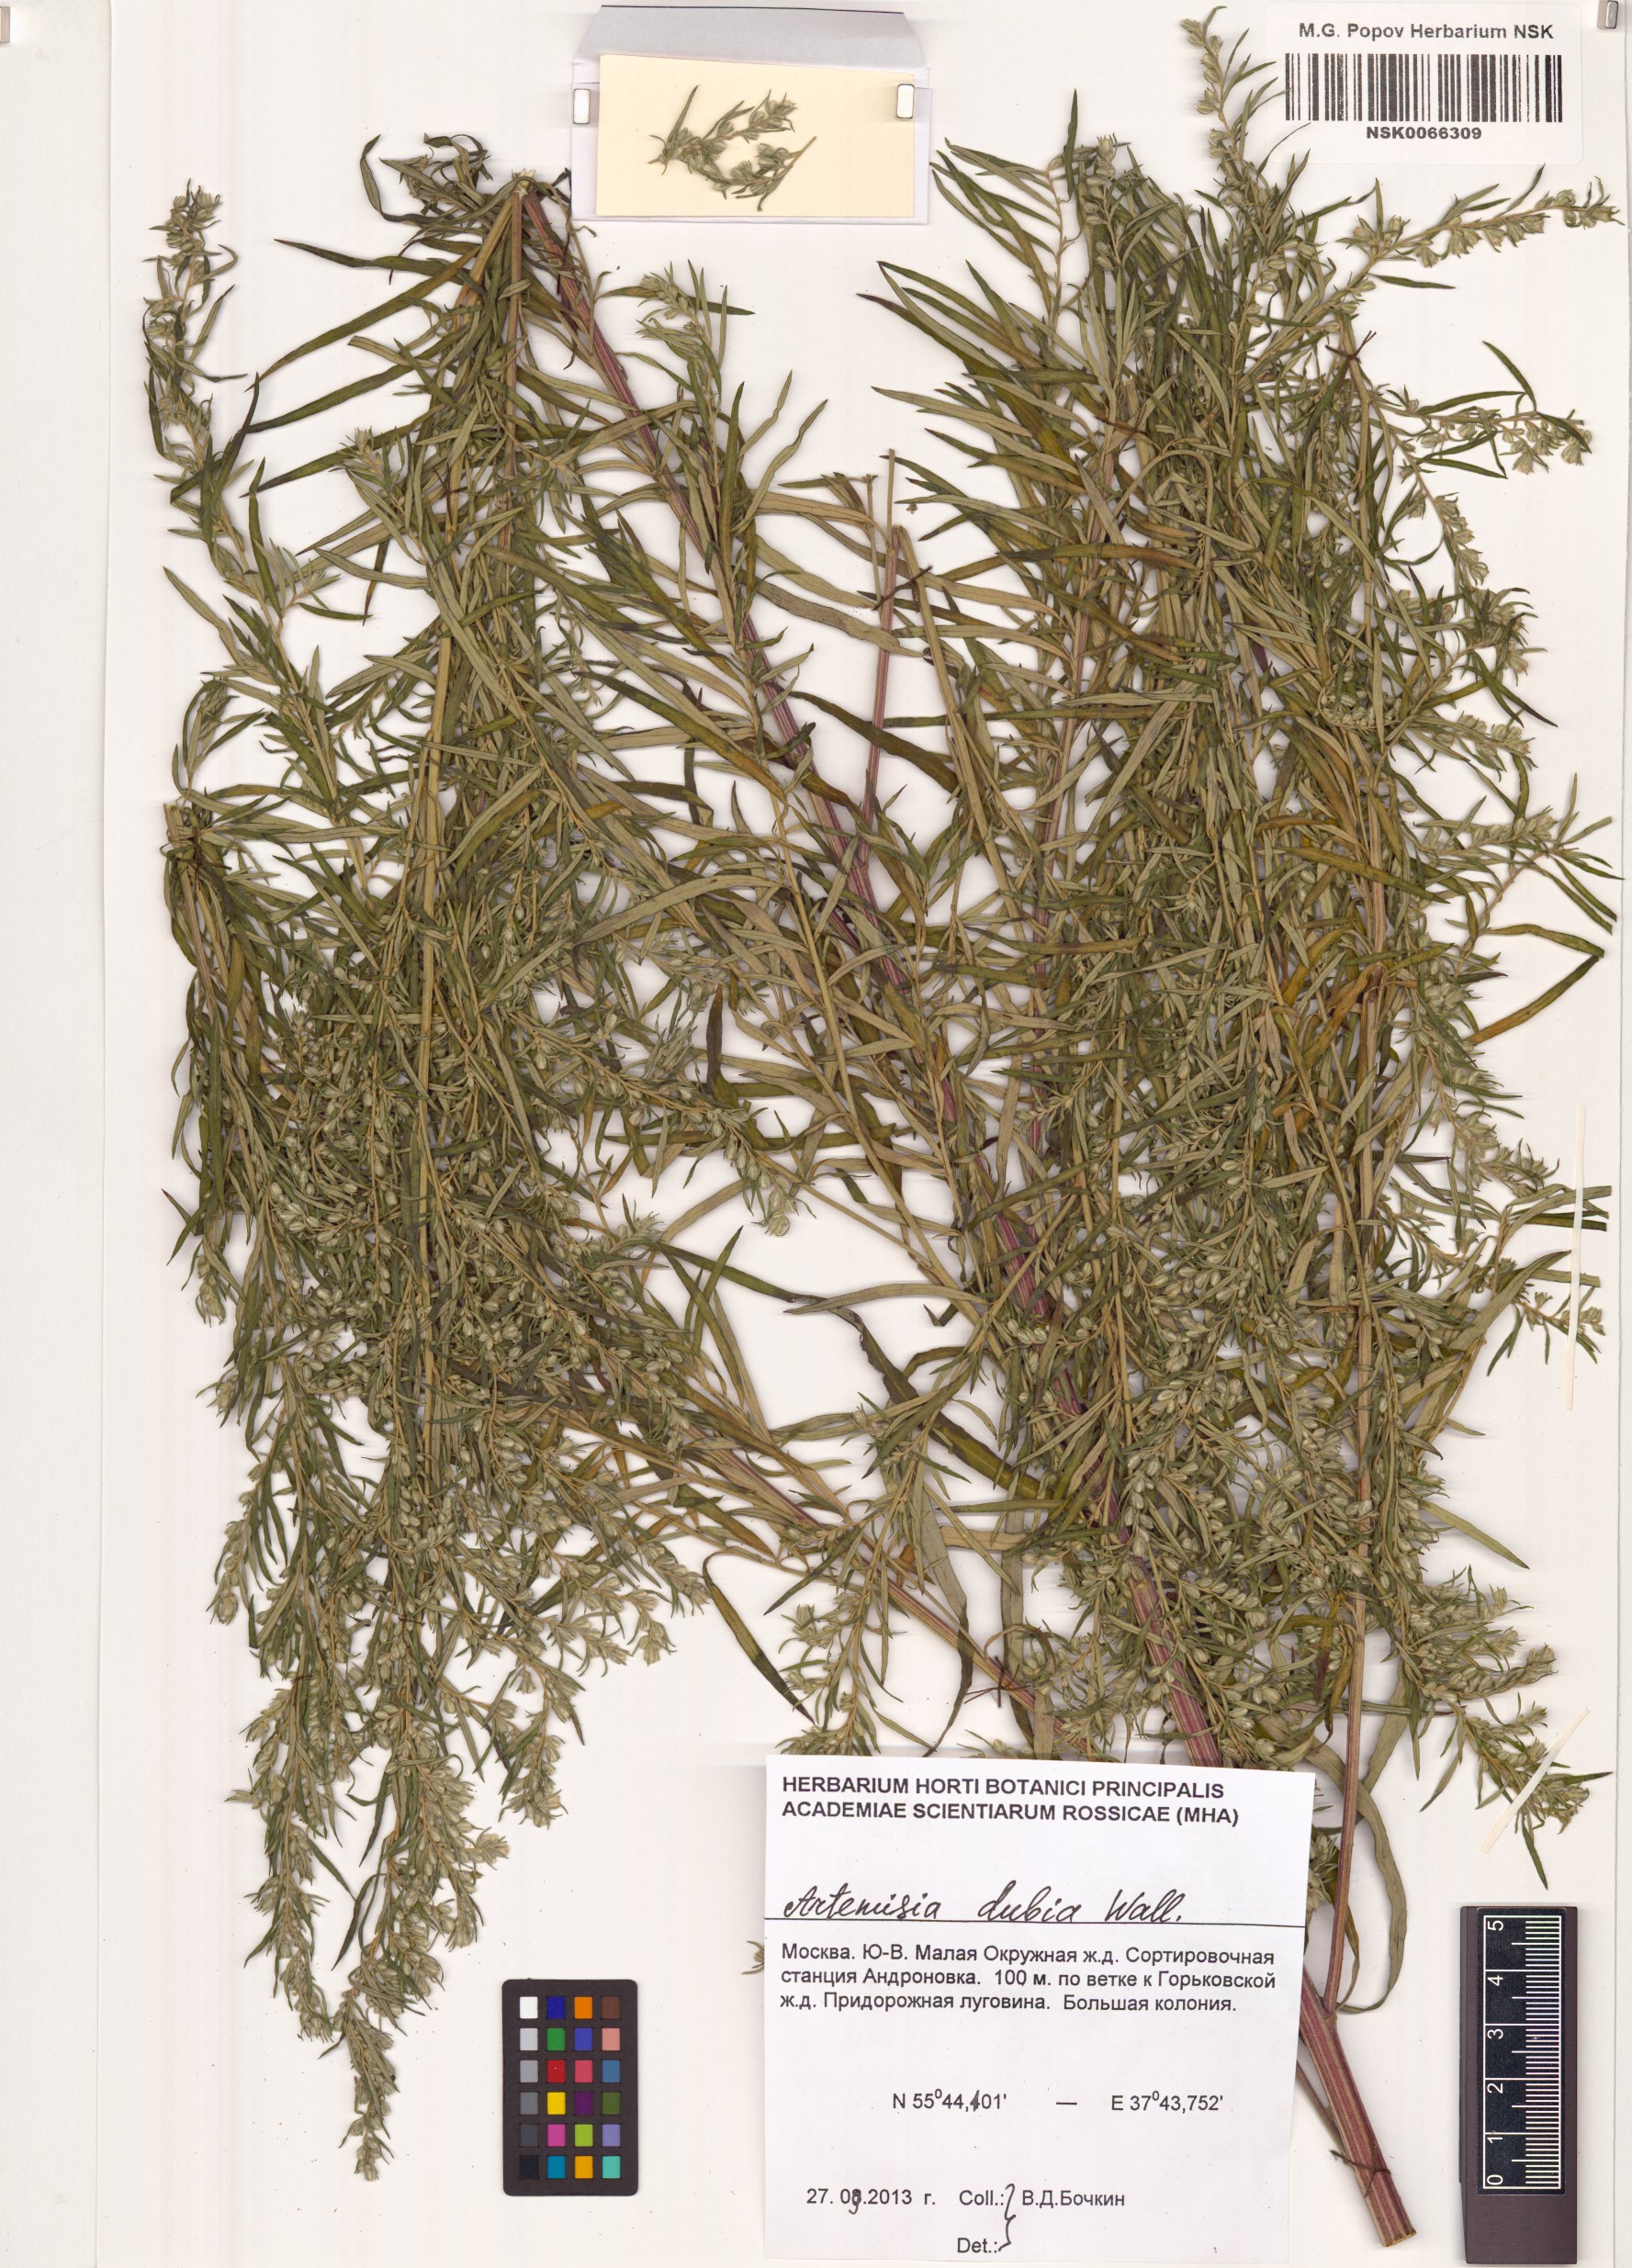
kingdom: Plantae
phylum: Tracheophyta
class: Magnoliopsida
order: Asterales
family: Asteraceae
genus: Artemisia
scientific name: Artemisia dubia
